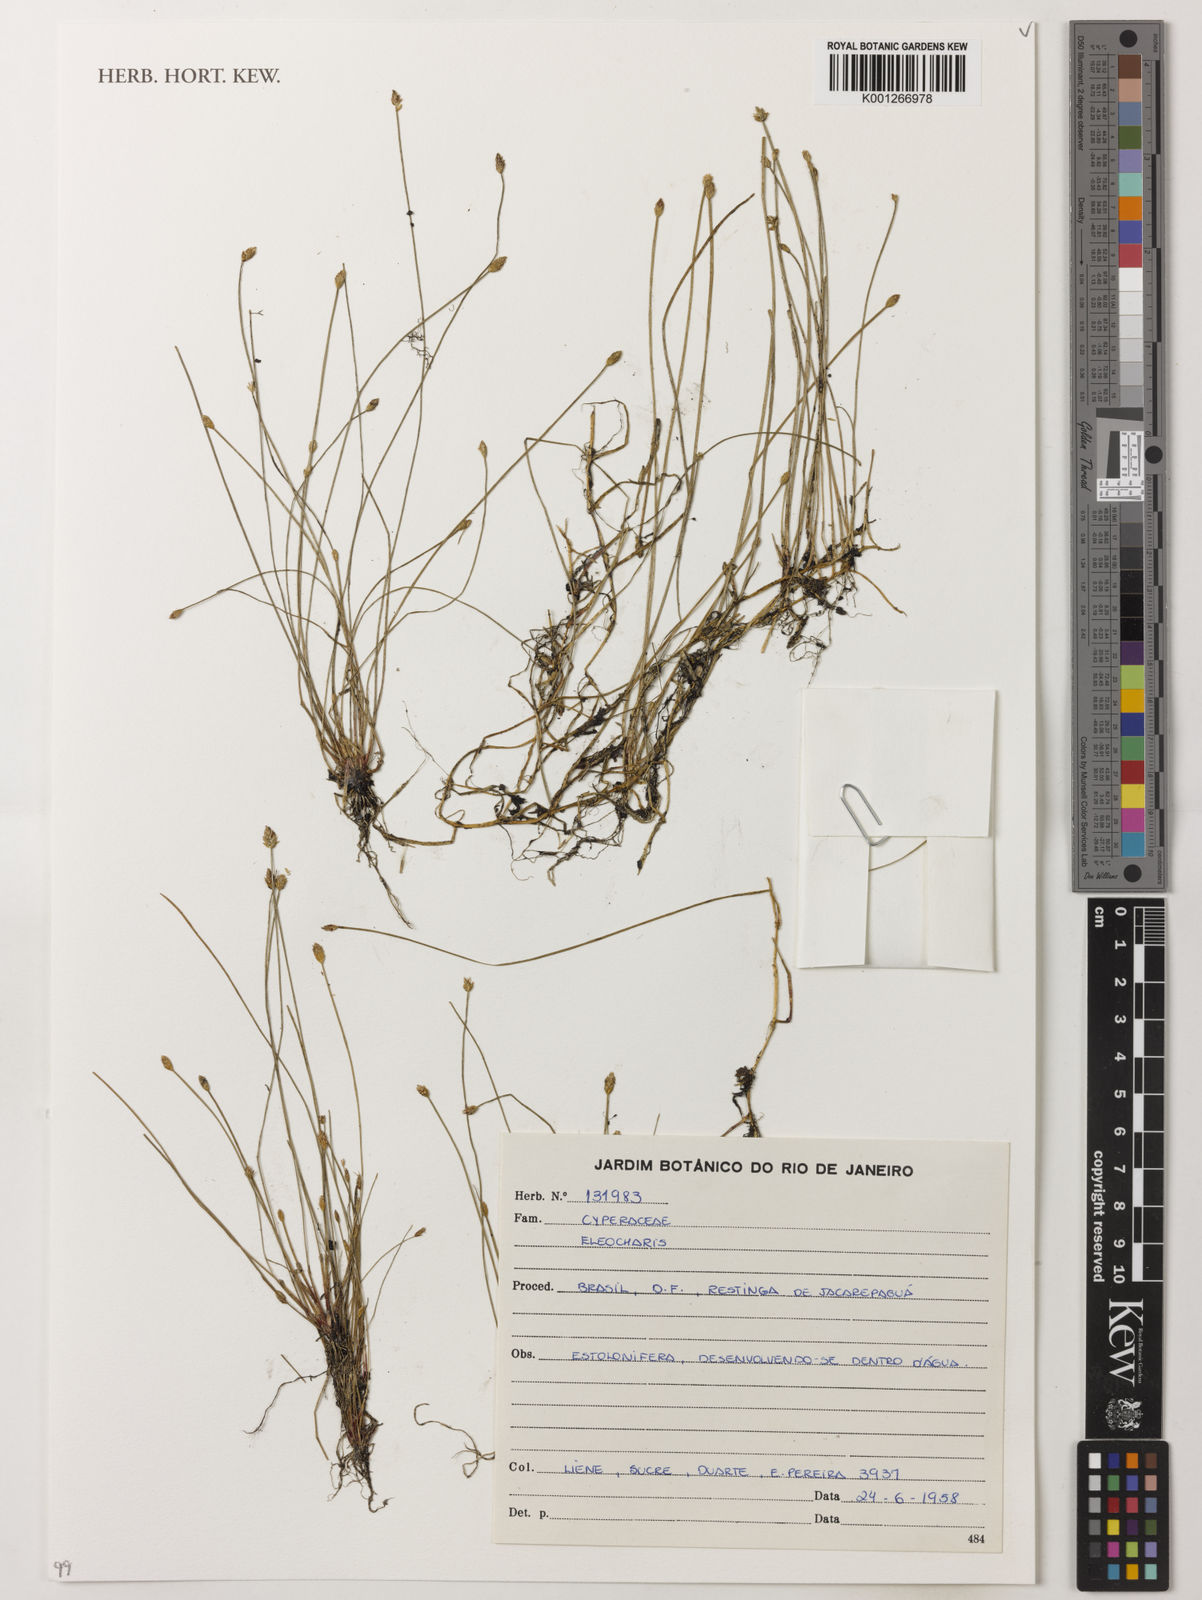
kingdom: Plantae
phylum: Tracheophyta
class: Liliopsida
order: Poales
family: Cyperaceae
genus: Eleocharis
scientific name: Eleocharis
